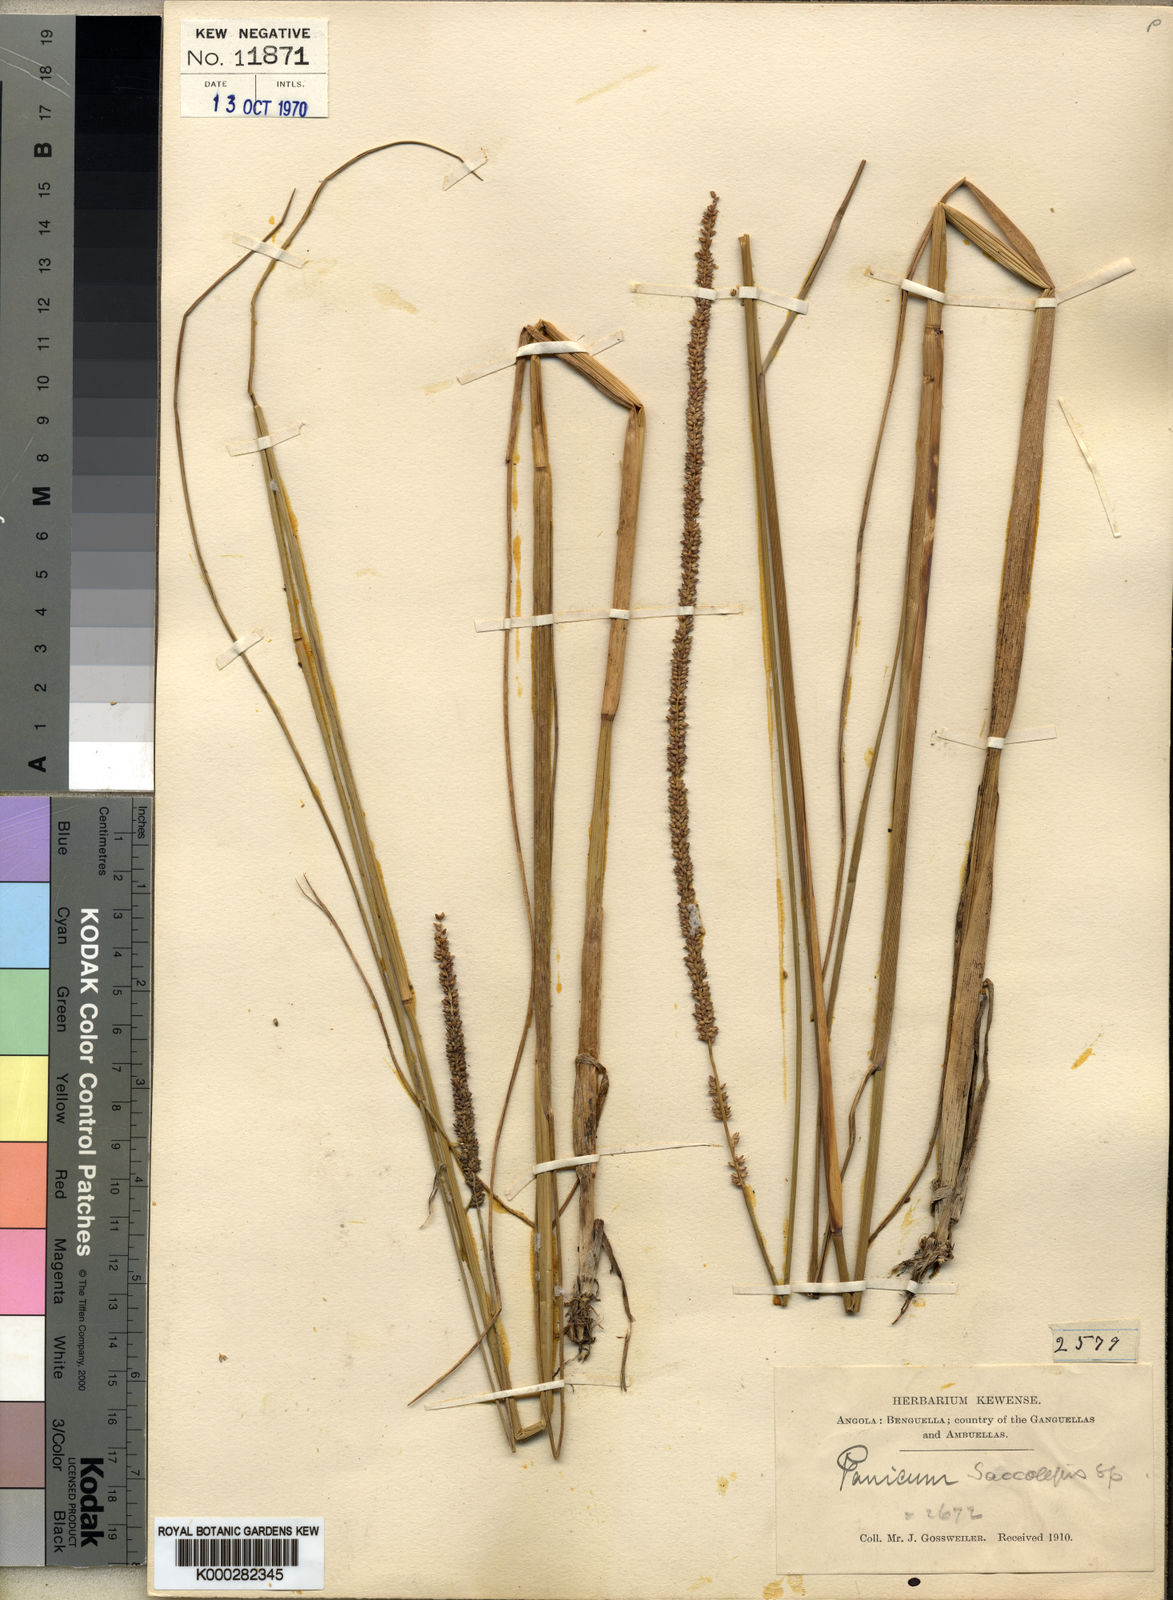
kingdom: Plantae
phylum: Tracheophyta
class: Liliopsida
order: Poales
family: Poaceae
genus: Sacciolepis
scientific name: Sacciolepis typhura
